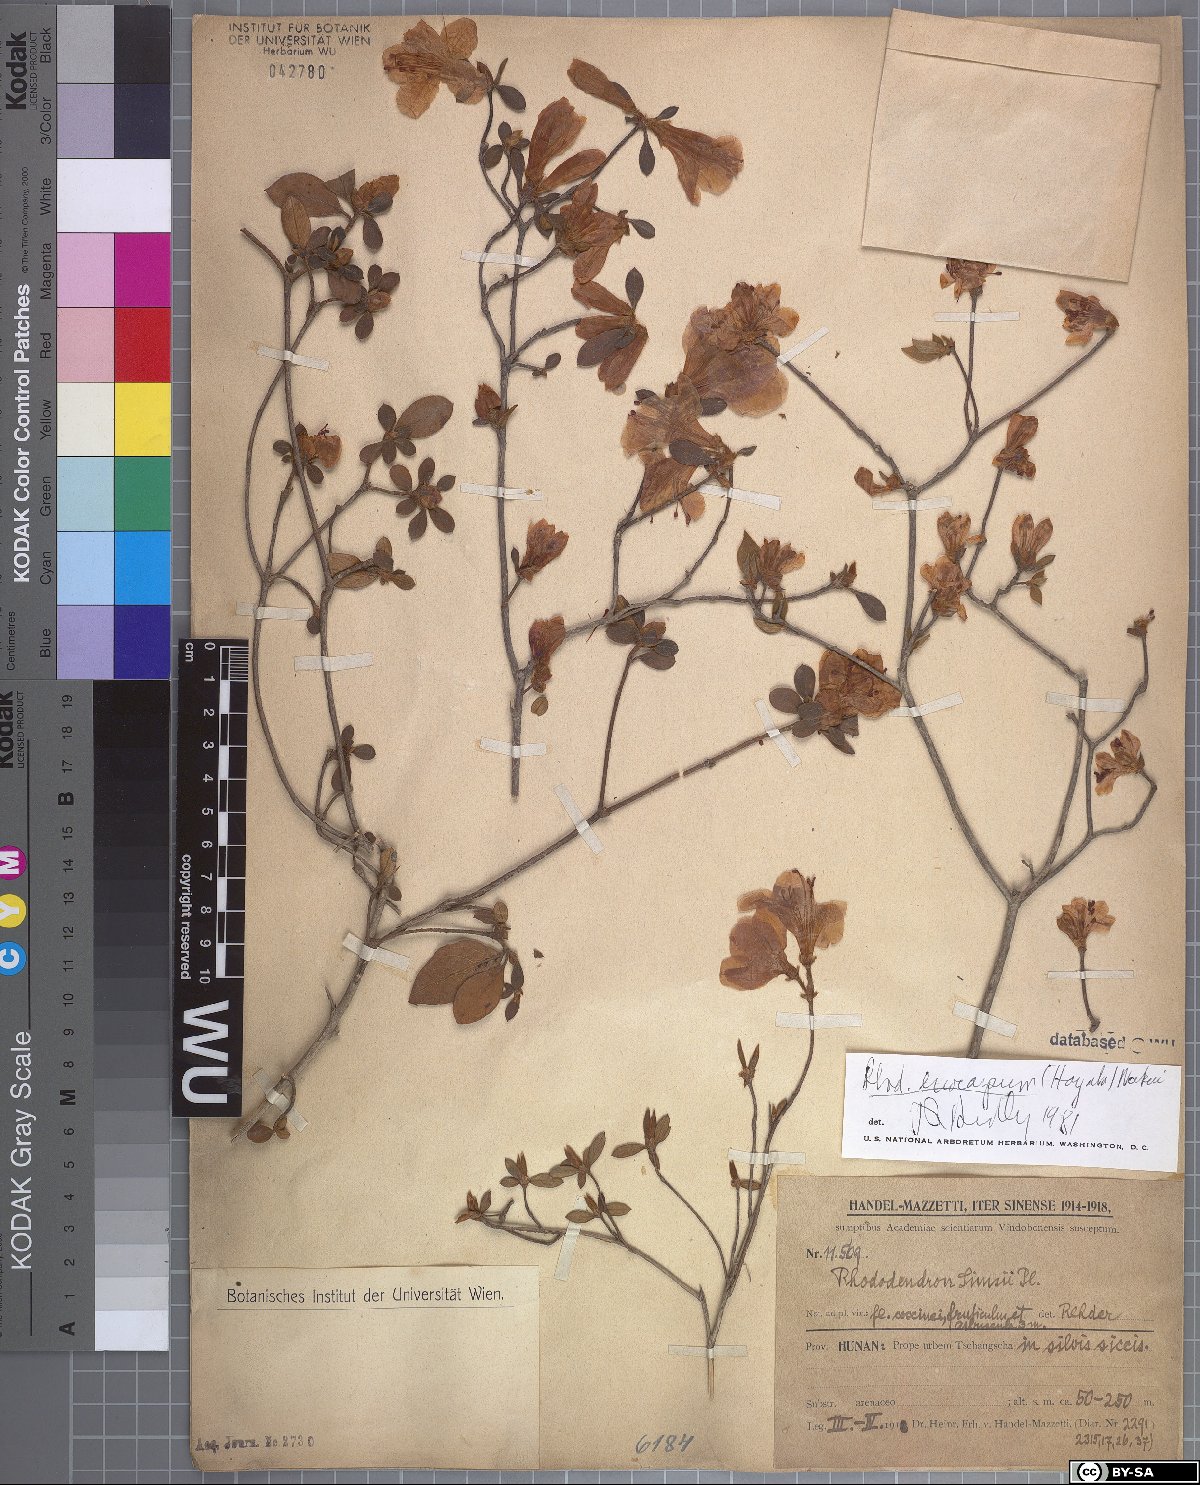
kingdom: Plantae
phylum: Tracheophyta
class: Magnoliopsida
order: Ericales
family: Ericaceae
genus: Rhododendron
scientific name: Rhododendron eriocarpum
